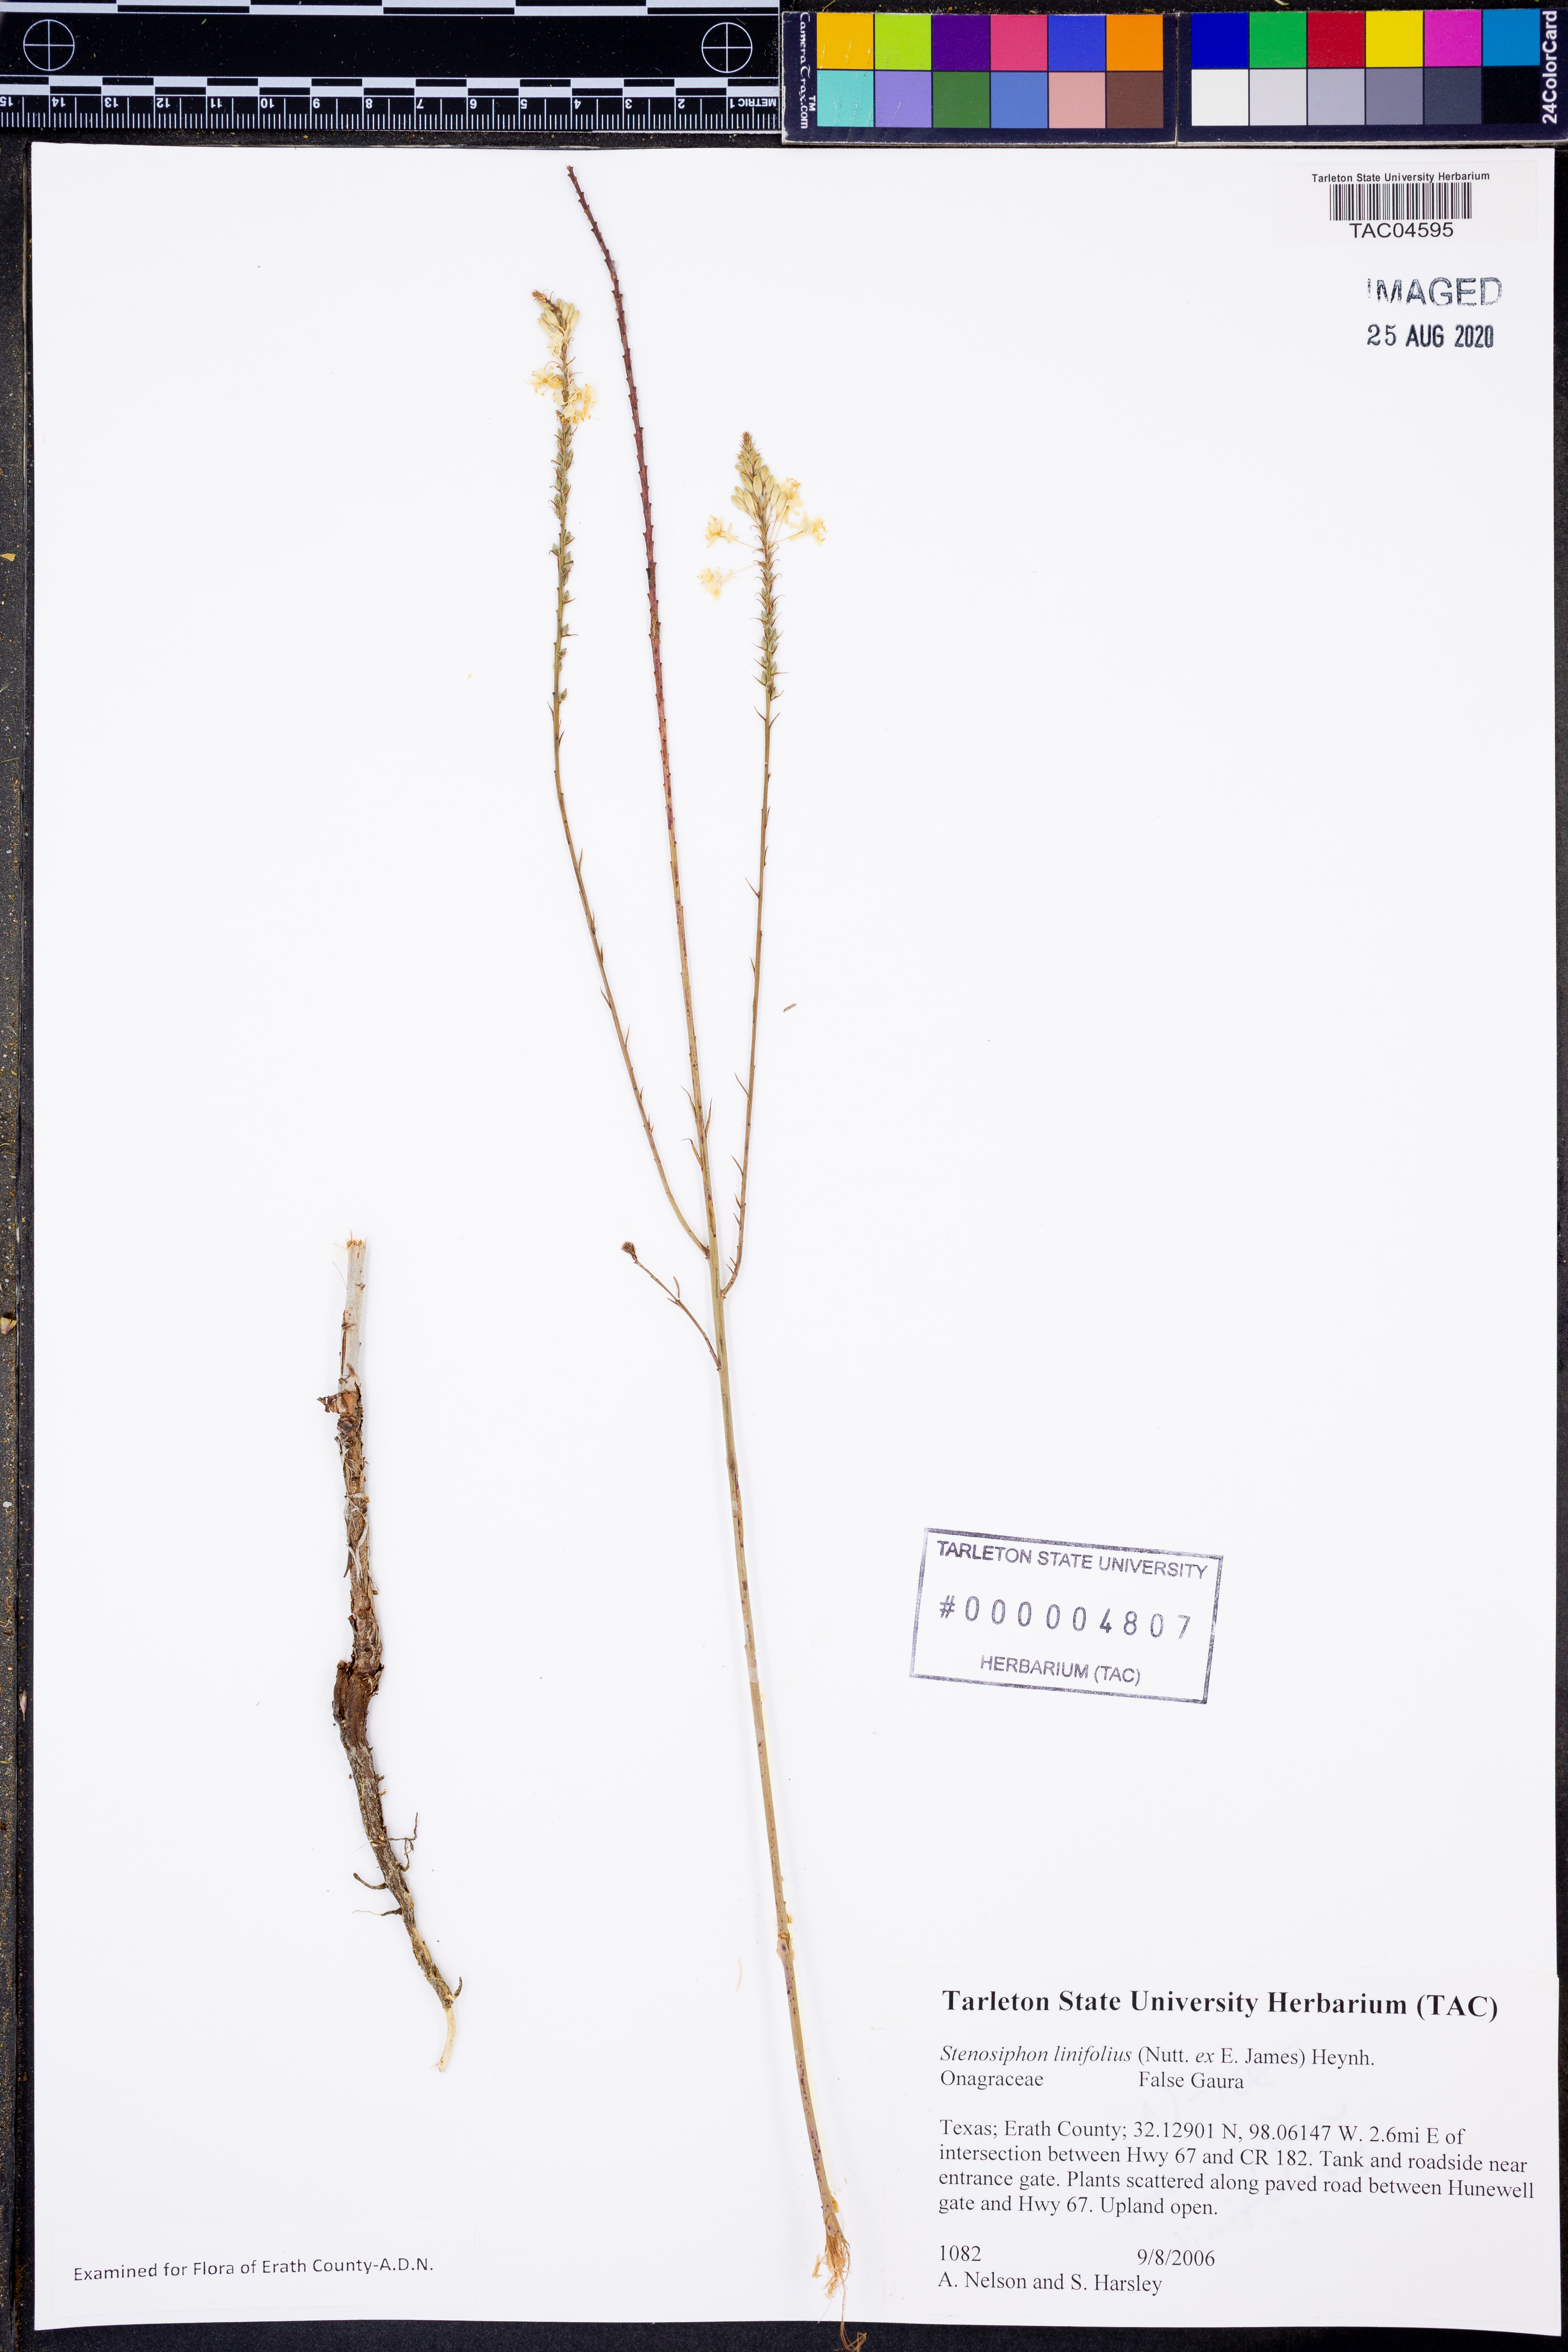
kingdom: Plantae
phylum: Tracheophyta
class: Magnoliopsida
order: Myrtales
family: Onagraceae
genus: Oenothera
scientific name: Oenothera glaucifolia
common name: False gaura
